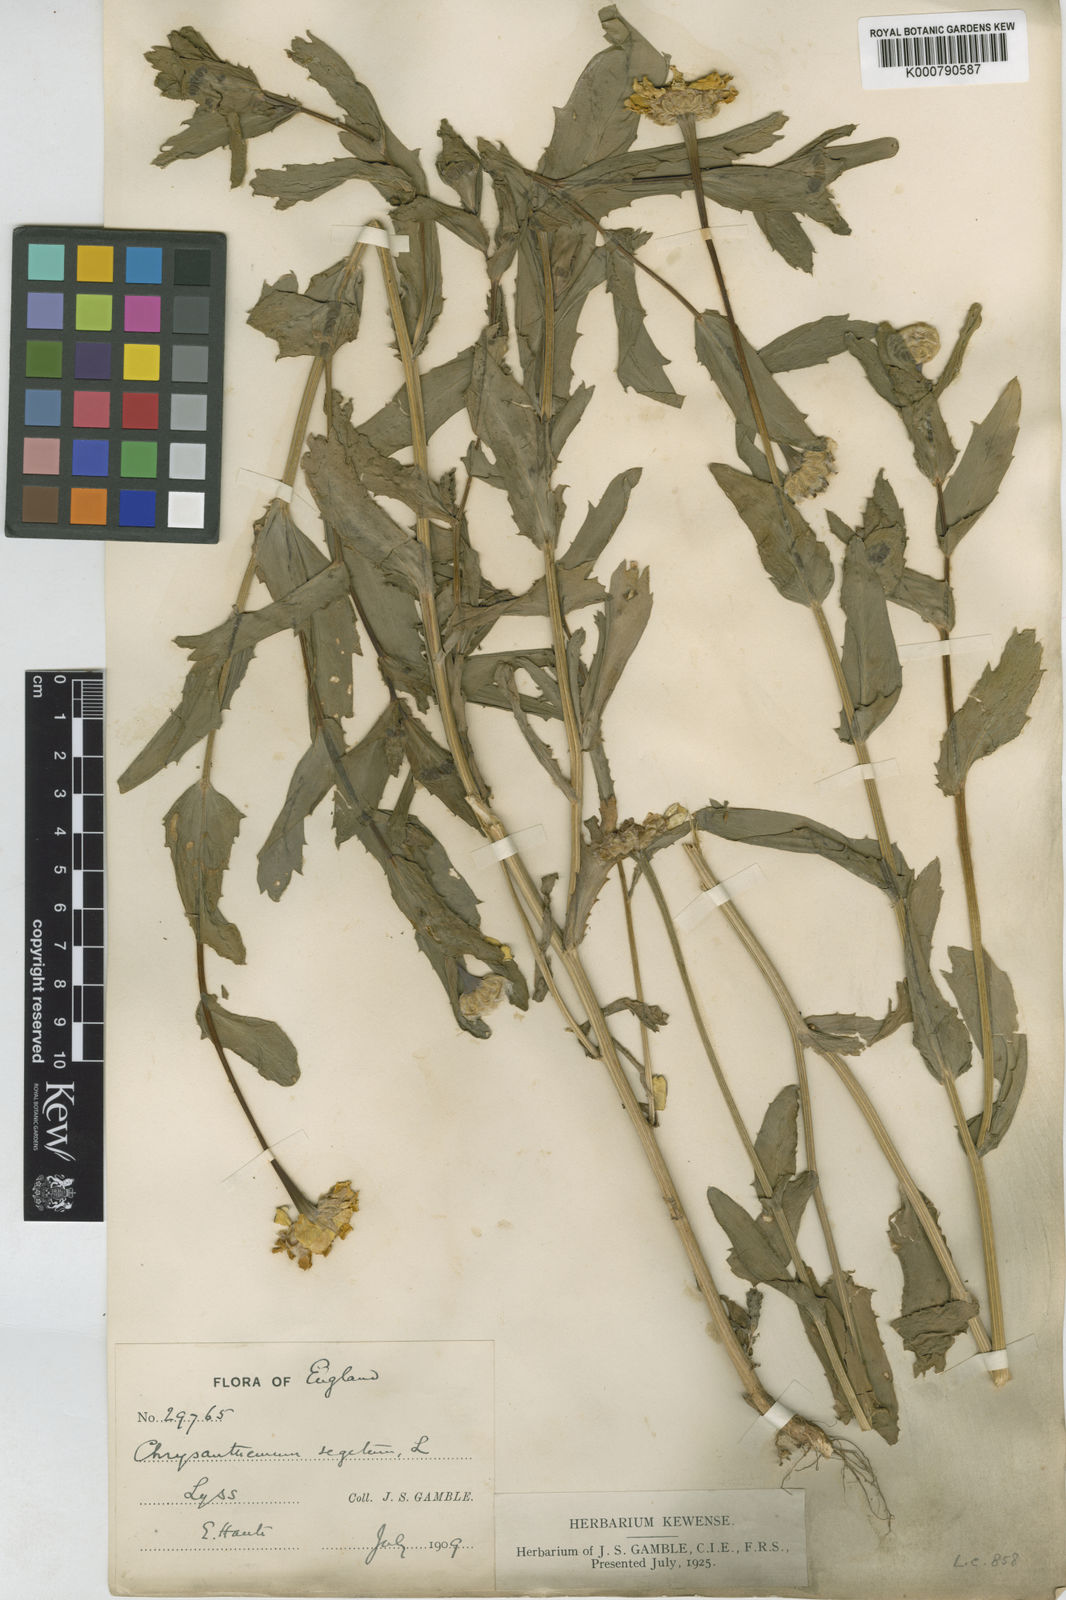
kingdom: Plantae
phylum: Tracheophyta
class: Magnoliopsida
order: Asterales
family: Asteraceae
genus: Glebionis
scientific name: Glebionis
